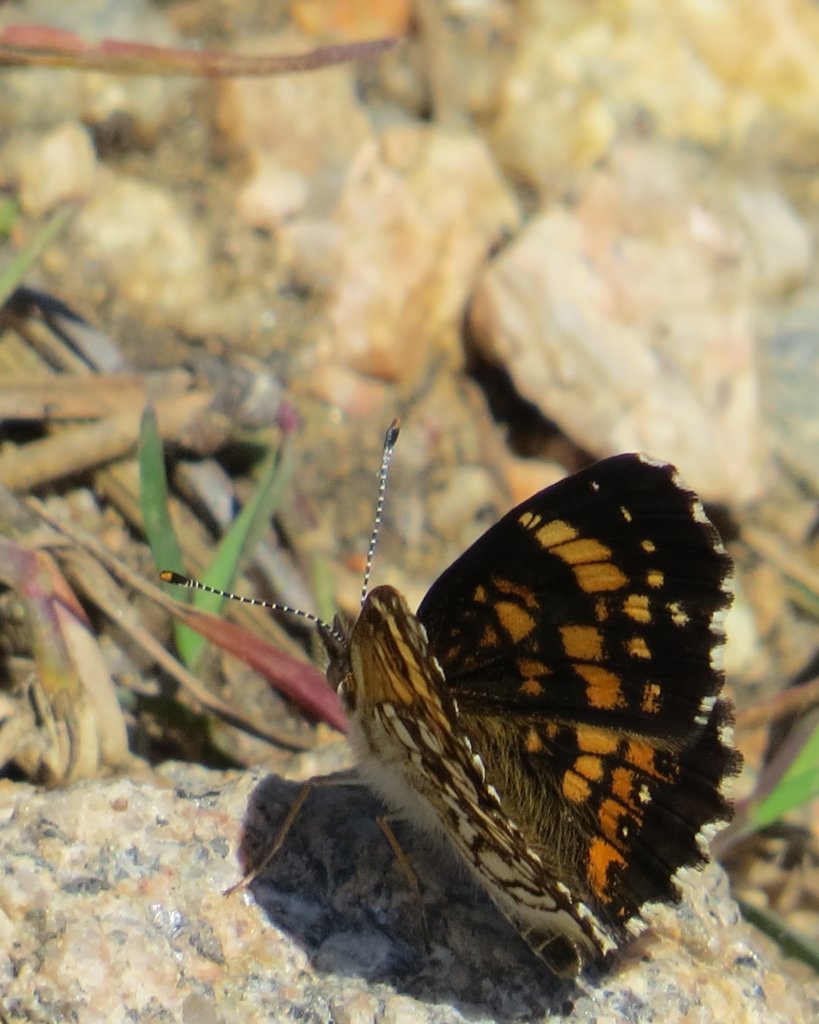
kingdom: Animalia
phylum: Arthropoda
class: Insecta
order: Lepidoptera
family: Nymphalidae
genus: Chlosyne
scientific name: Chlosyne nycteis
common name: Silvery Checkerspot
